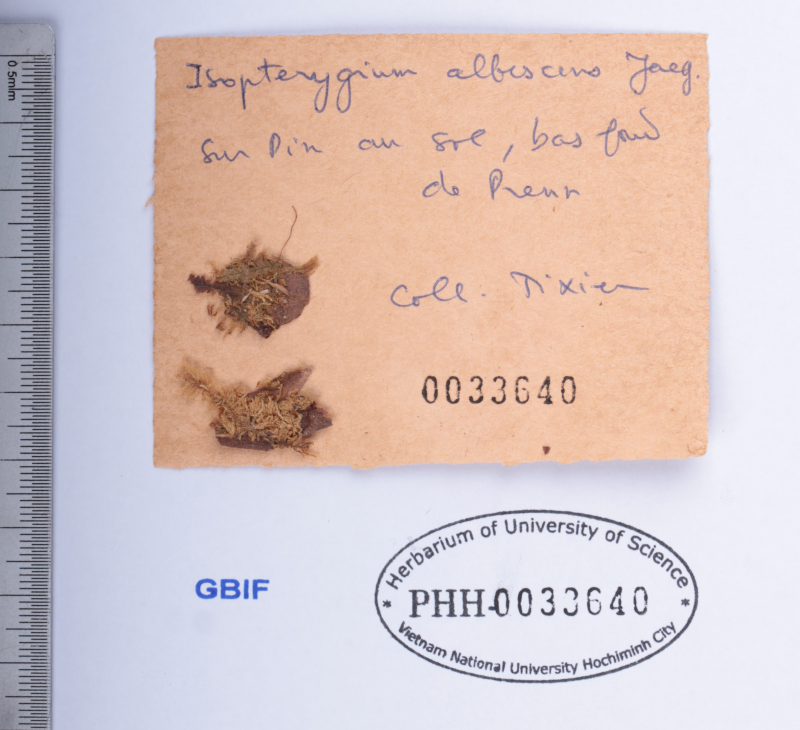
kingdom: Plantae
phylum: Bryophyta
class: Bryopsida
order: Hypnales
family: Pylaisiadelphaceae
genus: Isopterygium
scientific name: Isopterygium albescens
